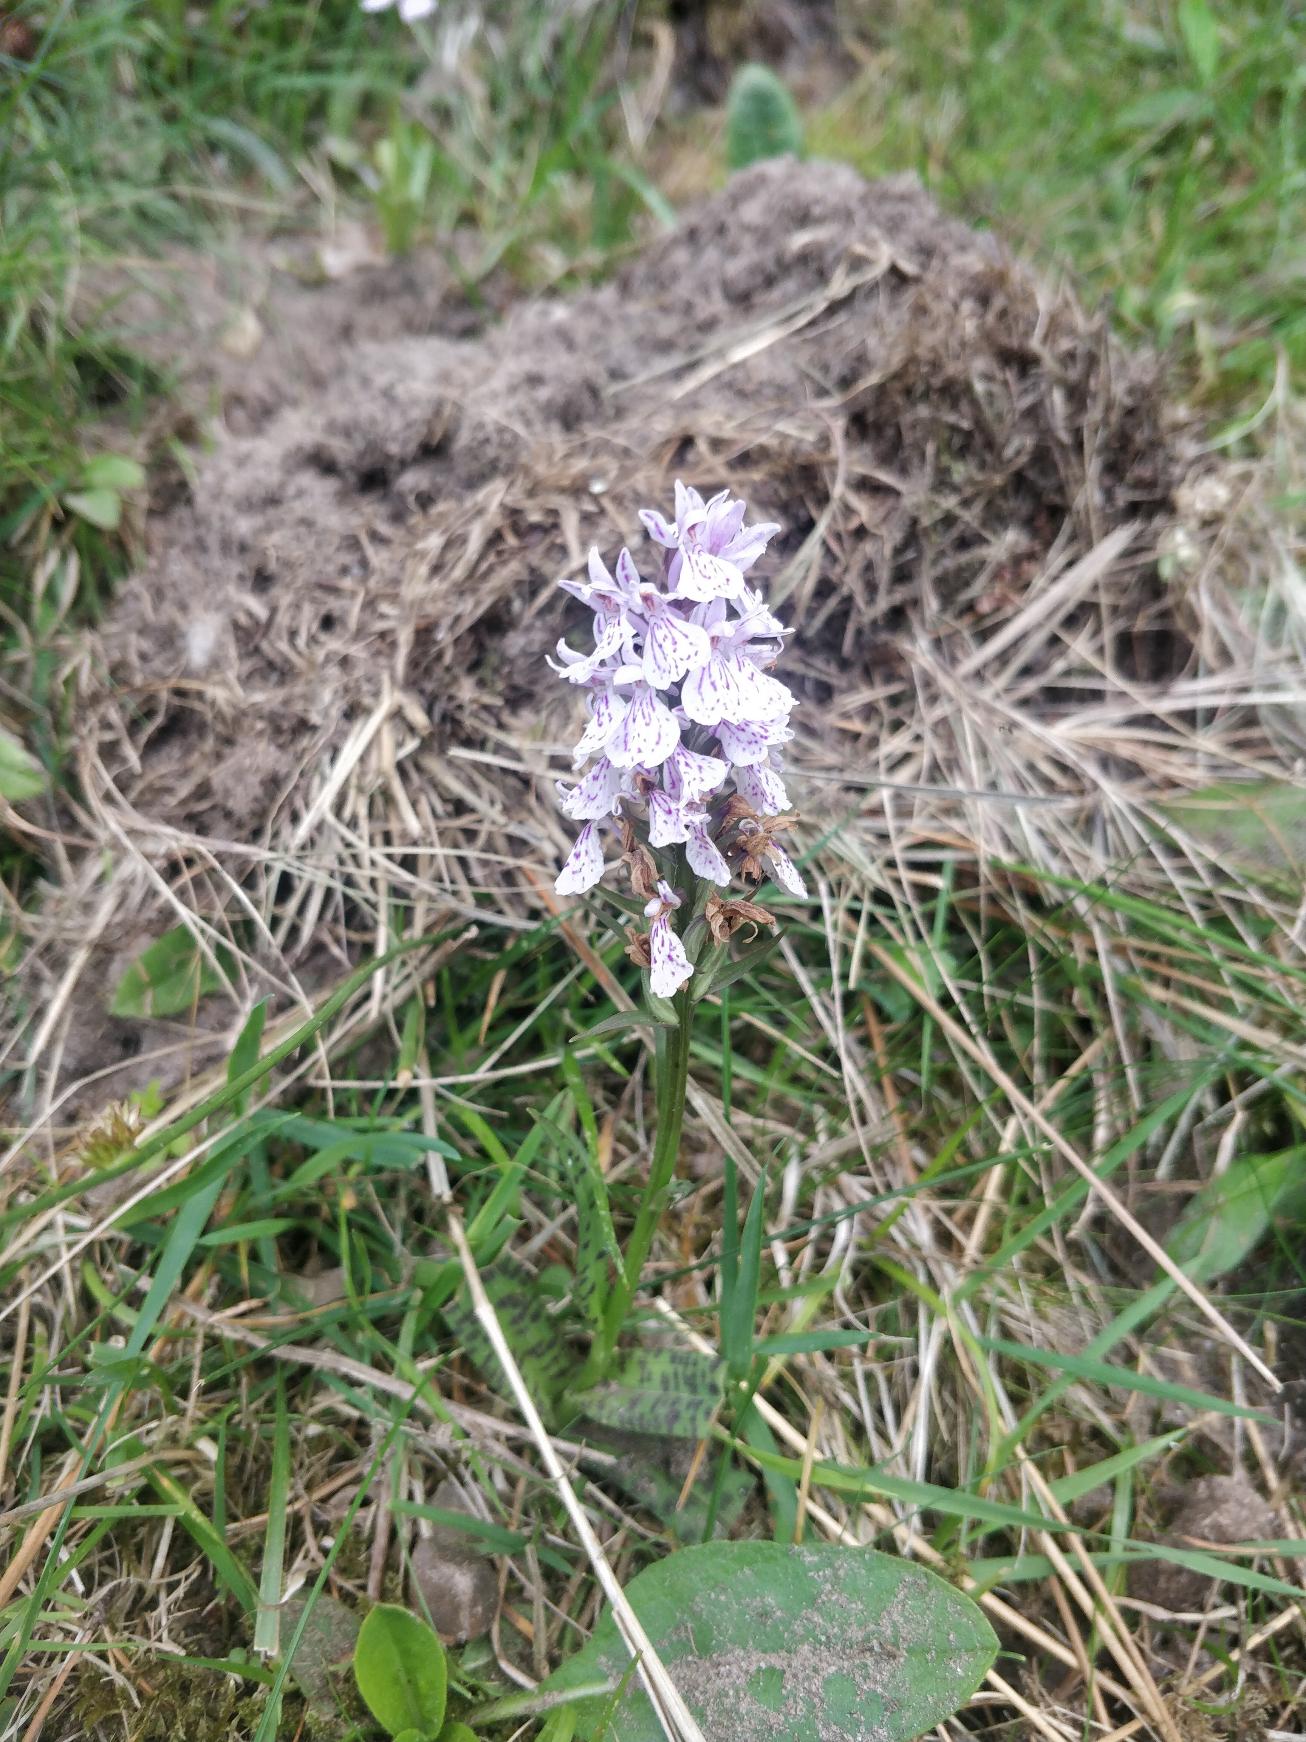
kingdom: Plantae
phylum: Tracheophyta
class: Liliopsida
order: Asparagales
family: Orchidaceae
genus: Dactylorhiza
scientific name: Dactylorhiza maculata
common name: Plettet gøgeurt
